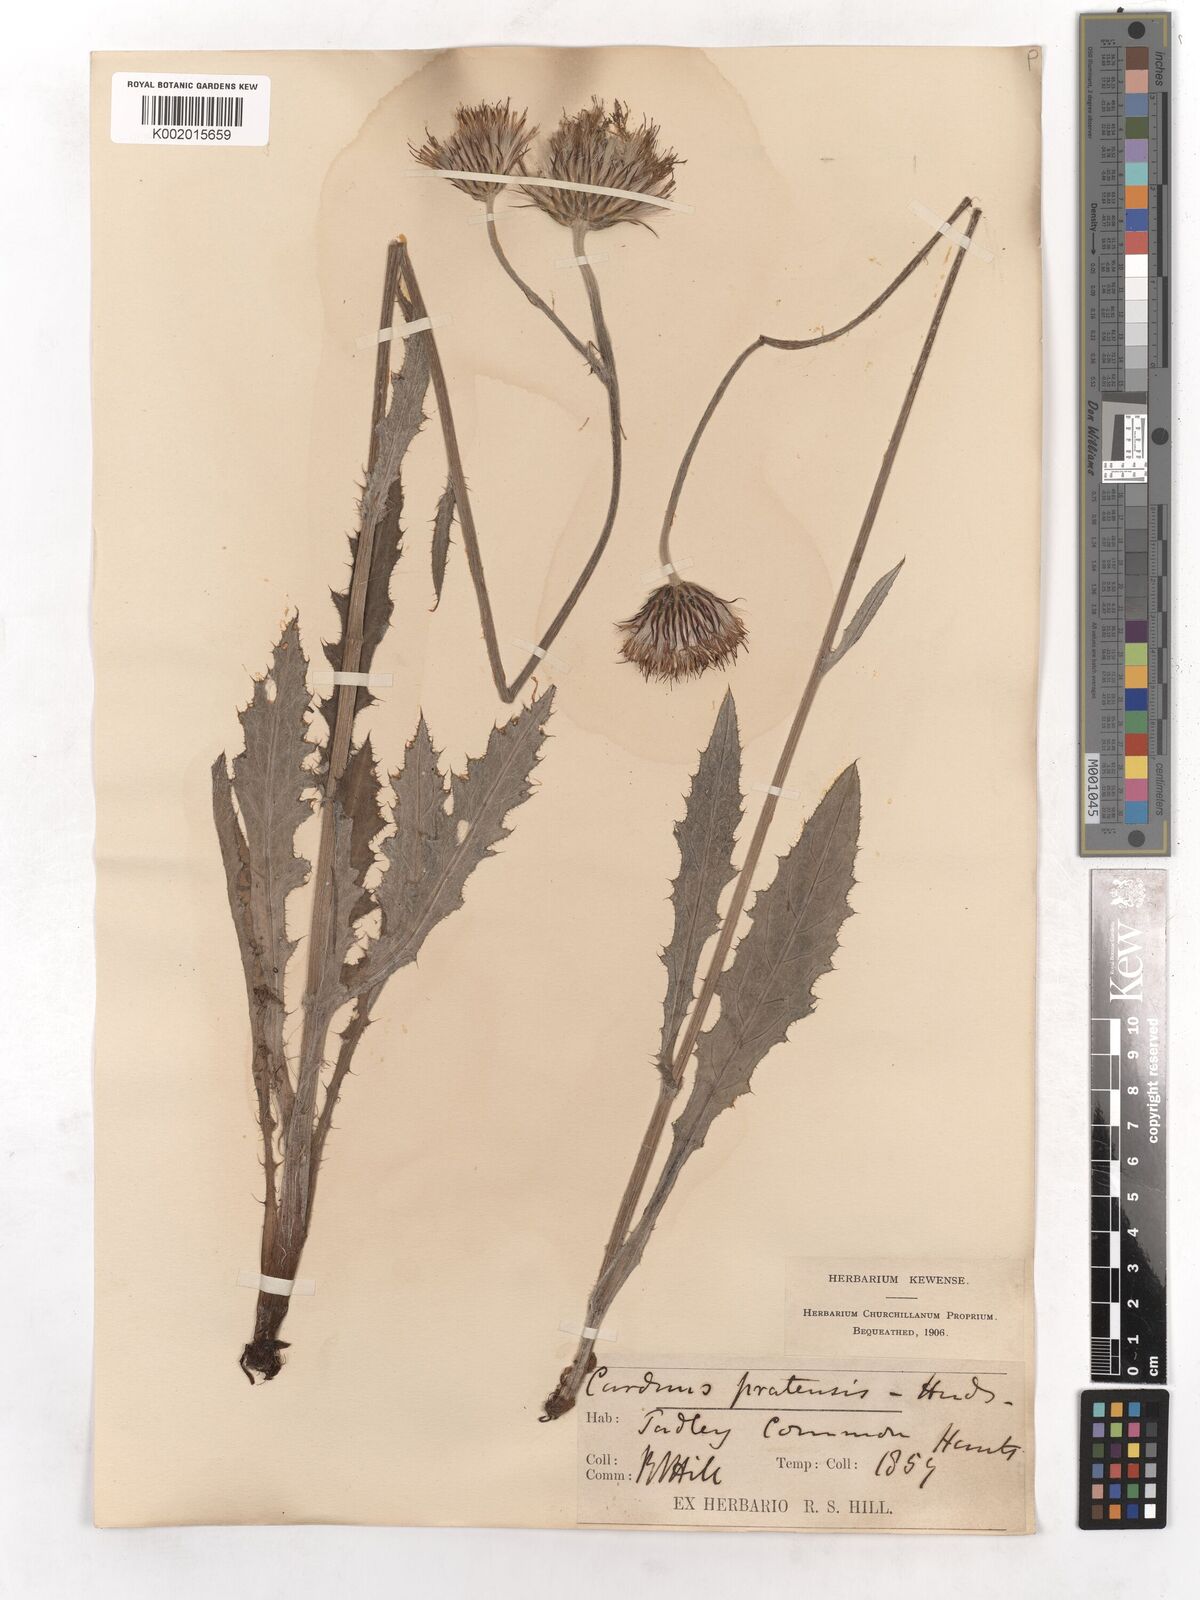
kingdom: Plantae
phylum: Tracheophyta
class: Magnoliopsida
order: Asterales
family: Asteraceae
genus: Cirsium
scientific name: Cirsium dissectum
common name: Meadow thistle
